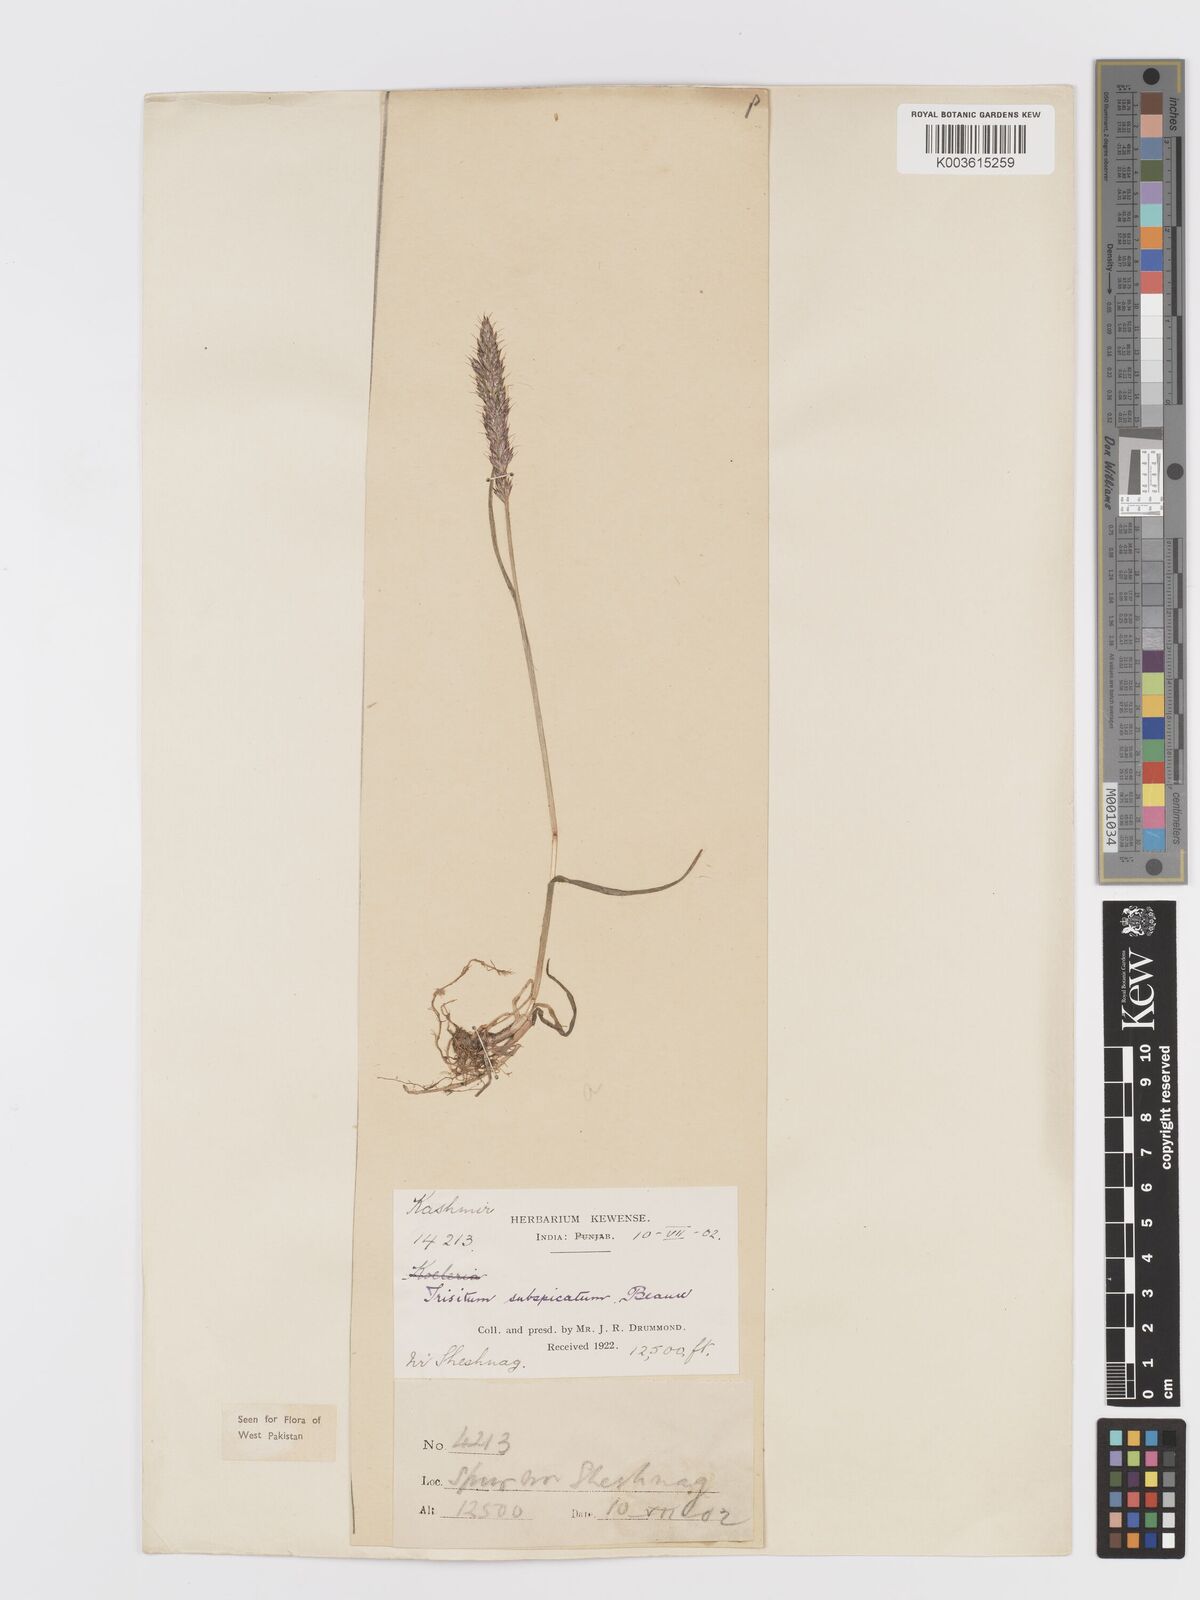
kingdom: Plantae
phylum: Tracheophyta
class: Liliopsida
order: Poales
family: Poaceae
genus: Koeleria
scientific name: Koeleria spicata
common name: Mountain trisetum
